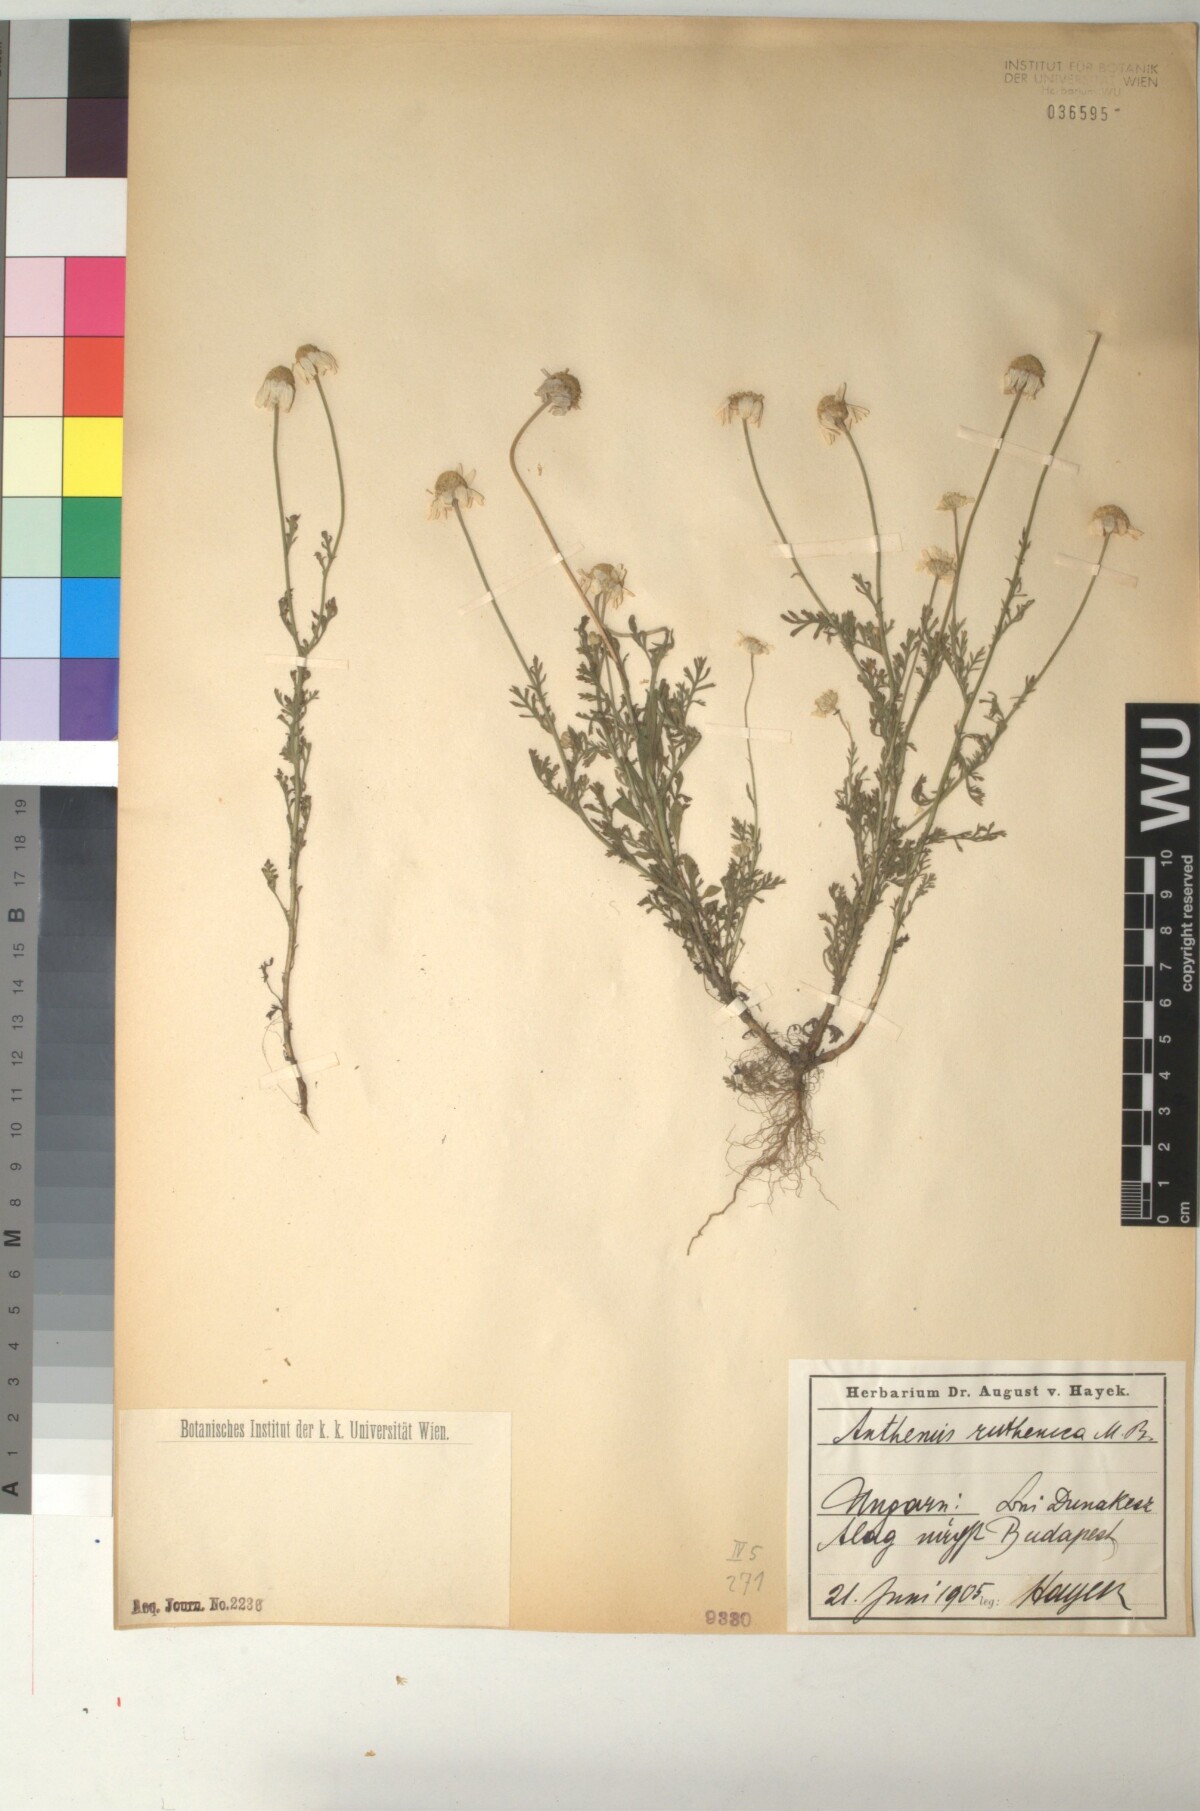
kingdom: Plantae
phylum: Tracheophyta
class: Magnoliopsida
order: Asterales
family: Asteraceae
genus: Anthemis
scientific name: Anthemis ruthenica
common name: Eastern chamomile
